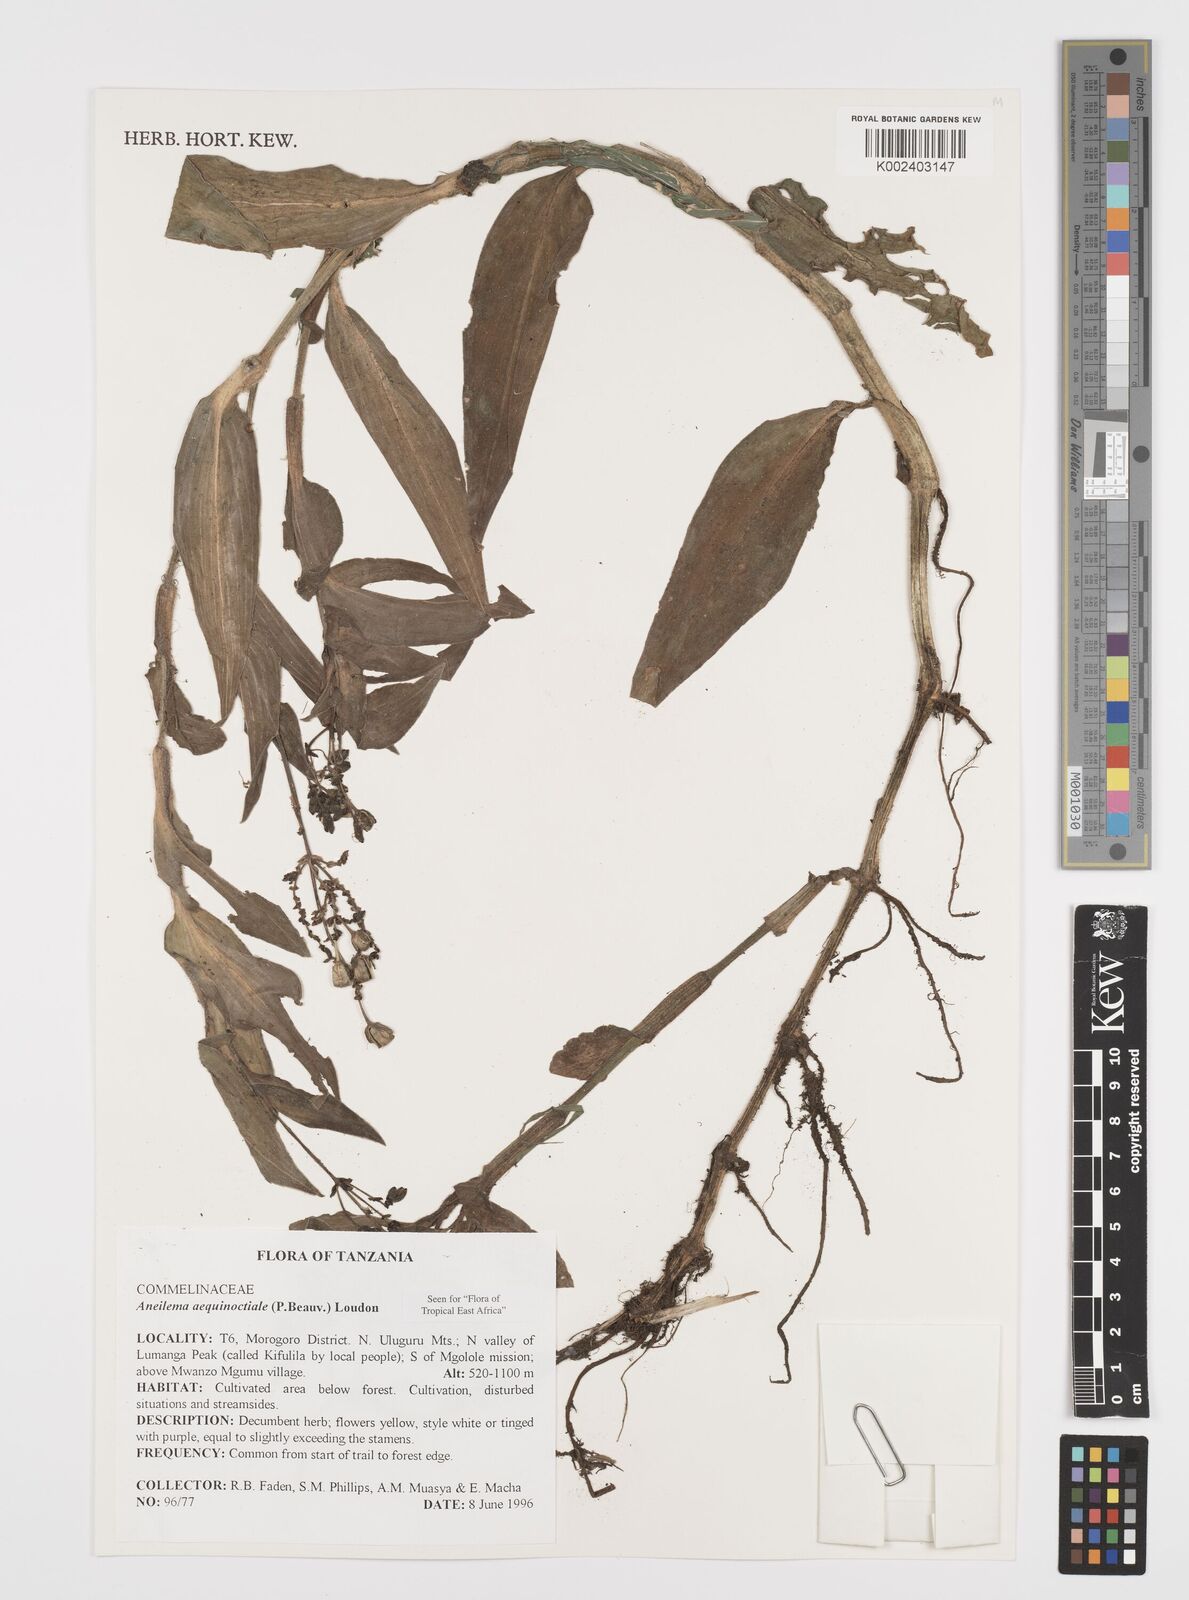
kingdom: Plantae
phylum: Tracheophyta
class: Liliopsida
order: Commelinales
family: Commelinaceae
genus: Aneilema
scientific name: Aneilema aequinoctiale
